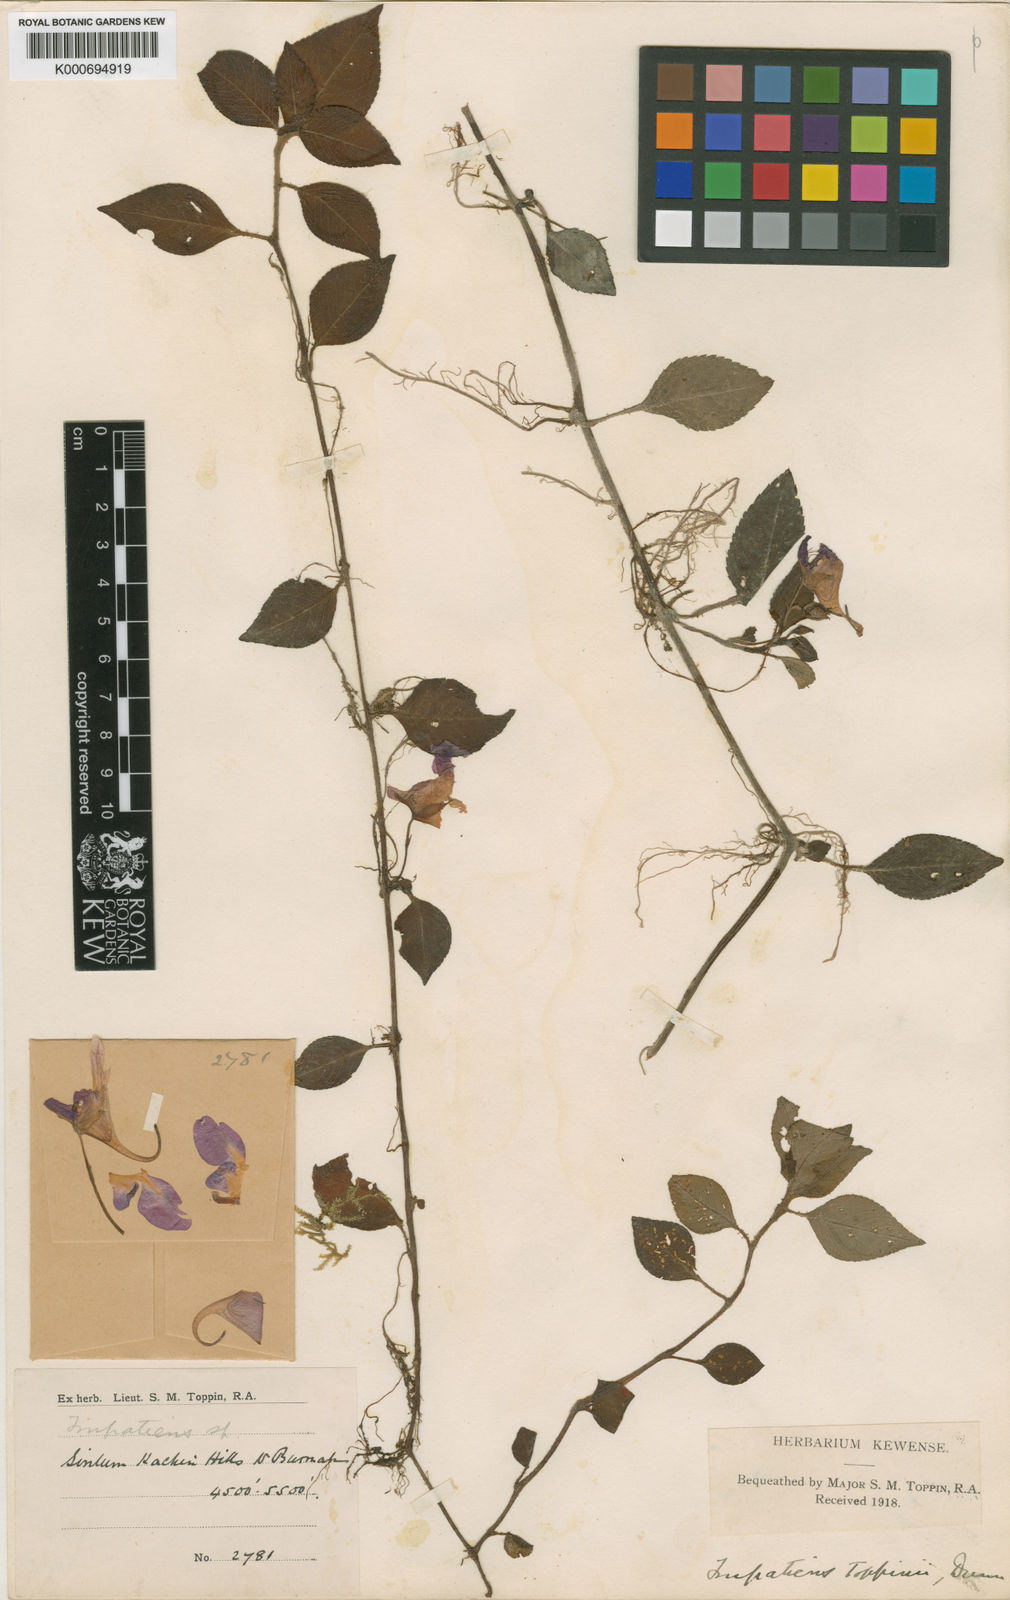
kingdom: Plantae
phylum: Tracheophyta
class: Magnoliopsida
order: Ericales
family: Balsaminaceae
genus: Impatiens
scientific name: Impatiens toppinii
